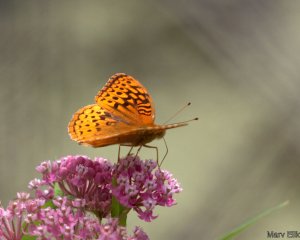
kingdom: Animalia
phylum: Arthropoda
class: Insecta
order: Lepidoptera
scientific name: Lepidoptera
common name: Butterflies
